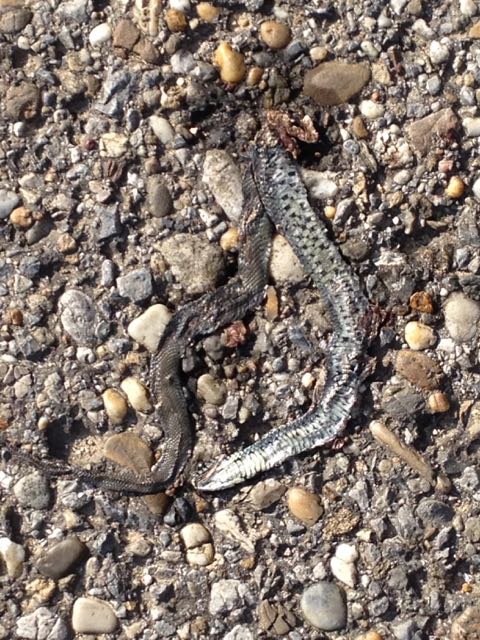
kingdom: Animalia
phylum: Chordata
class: Squamata
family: Colubridae
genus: Natrix
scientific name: Natrix natrix
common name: Grass snake
